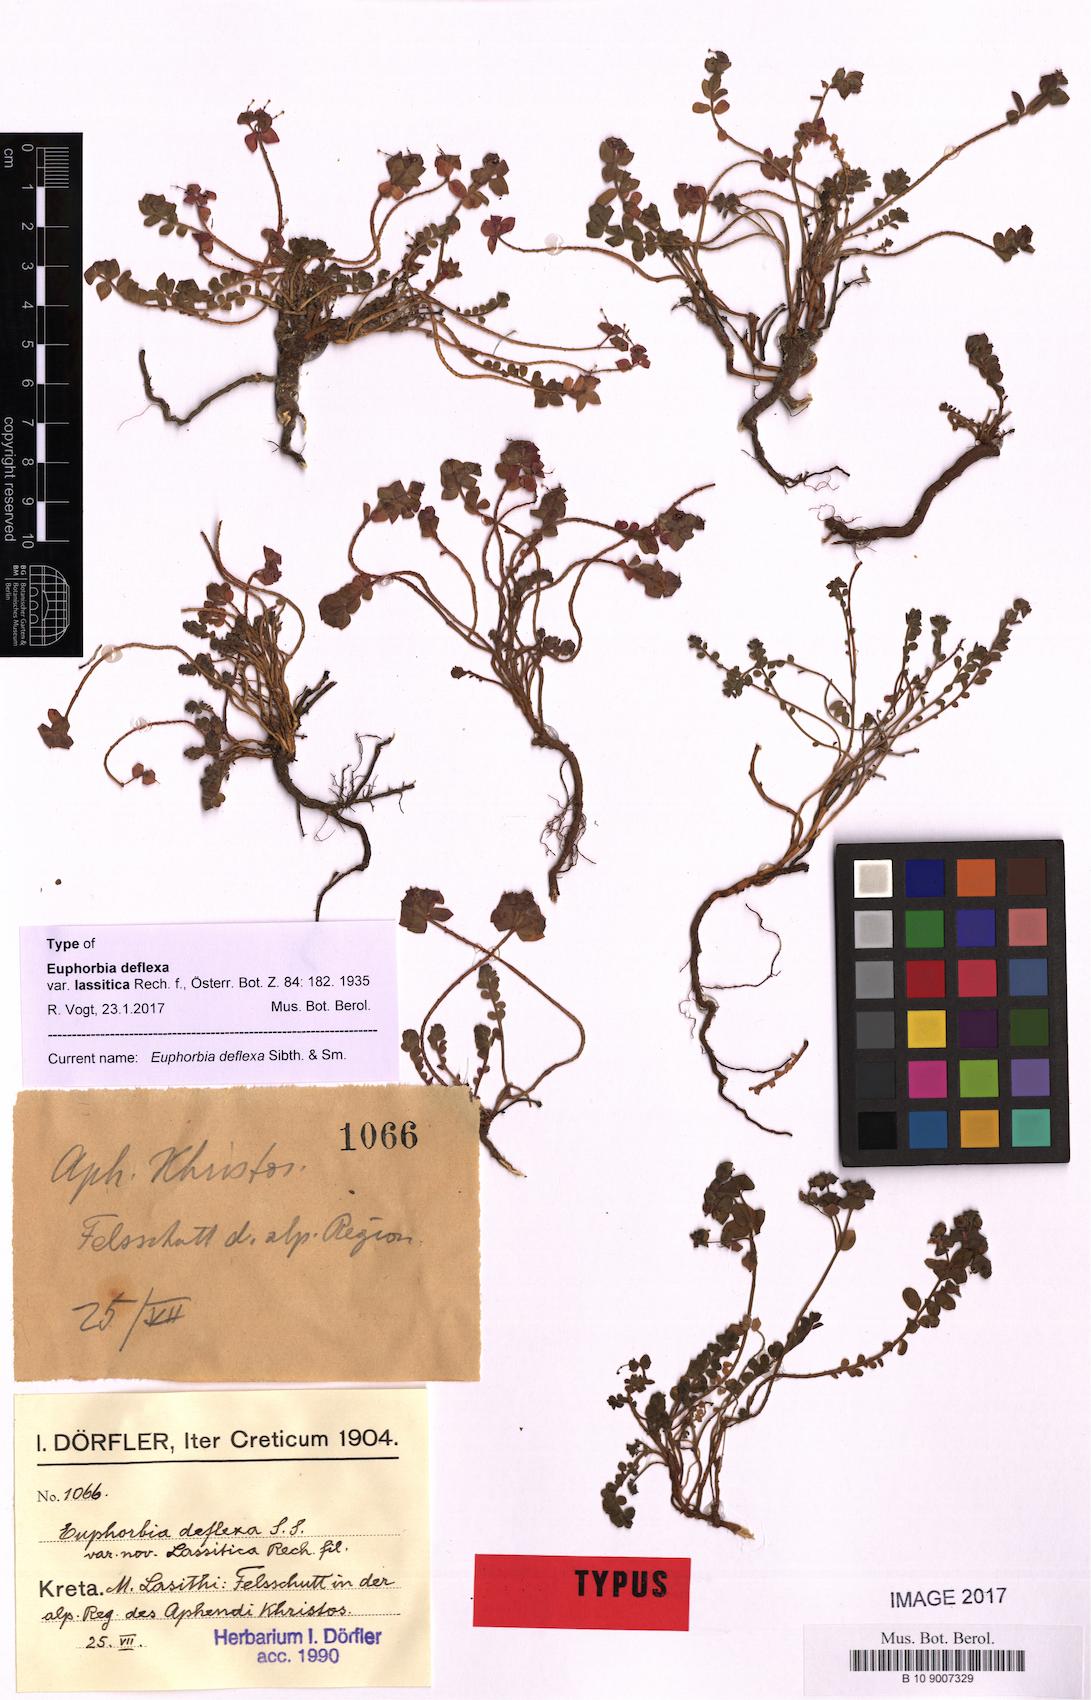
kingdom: Plantae
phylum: Tracheophyta
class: Magnoliopsida
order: Malpighiales
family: Euphorbiaceae
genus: Euphorbia
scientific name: Euphorbia deflexa
